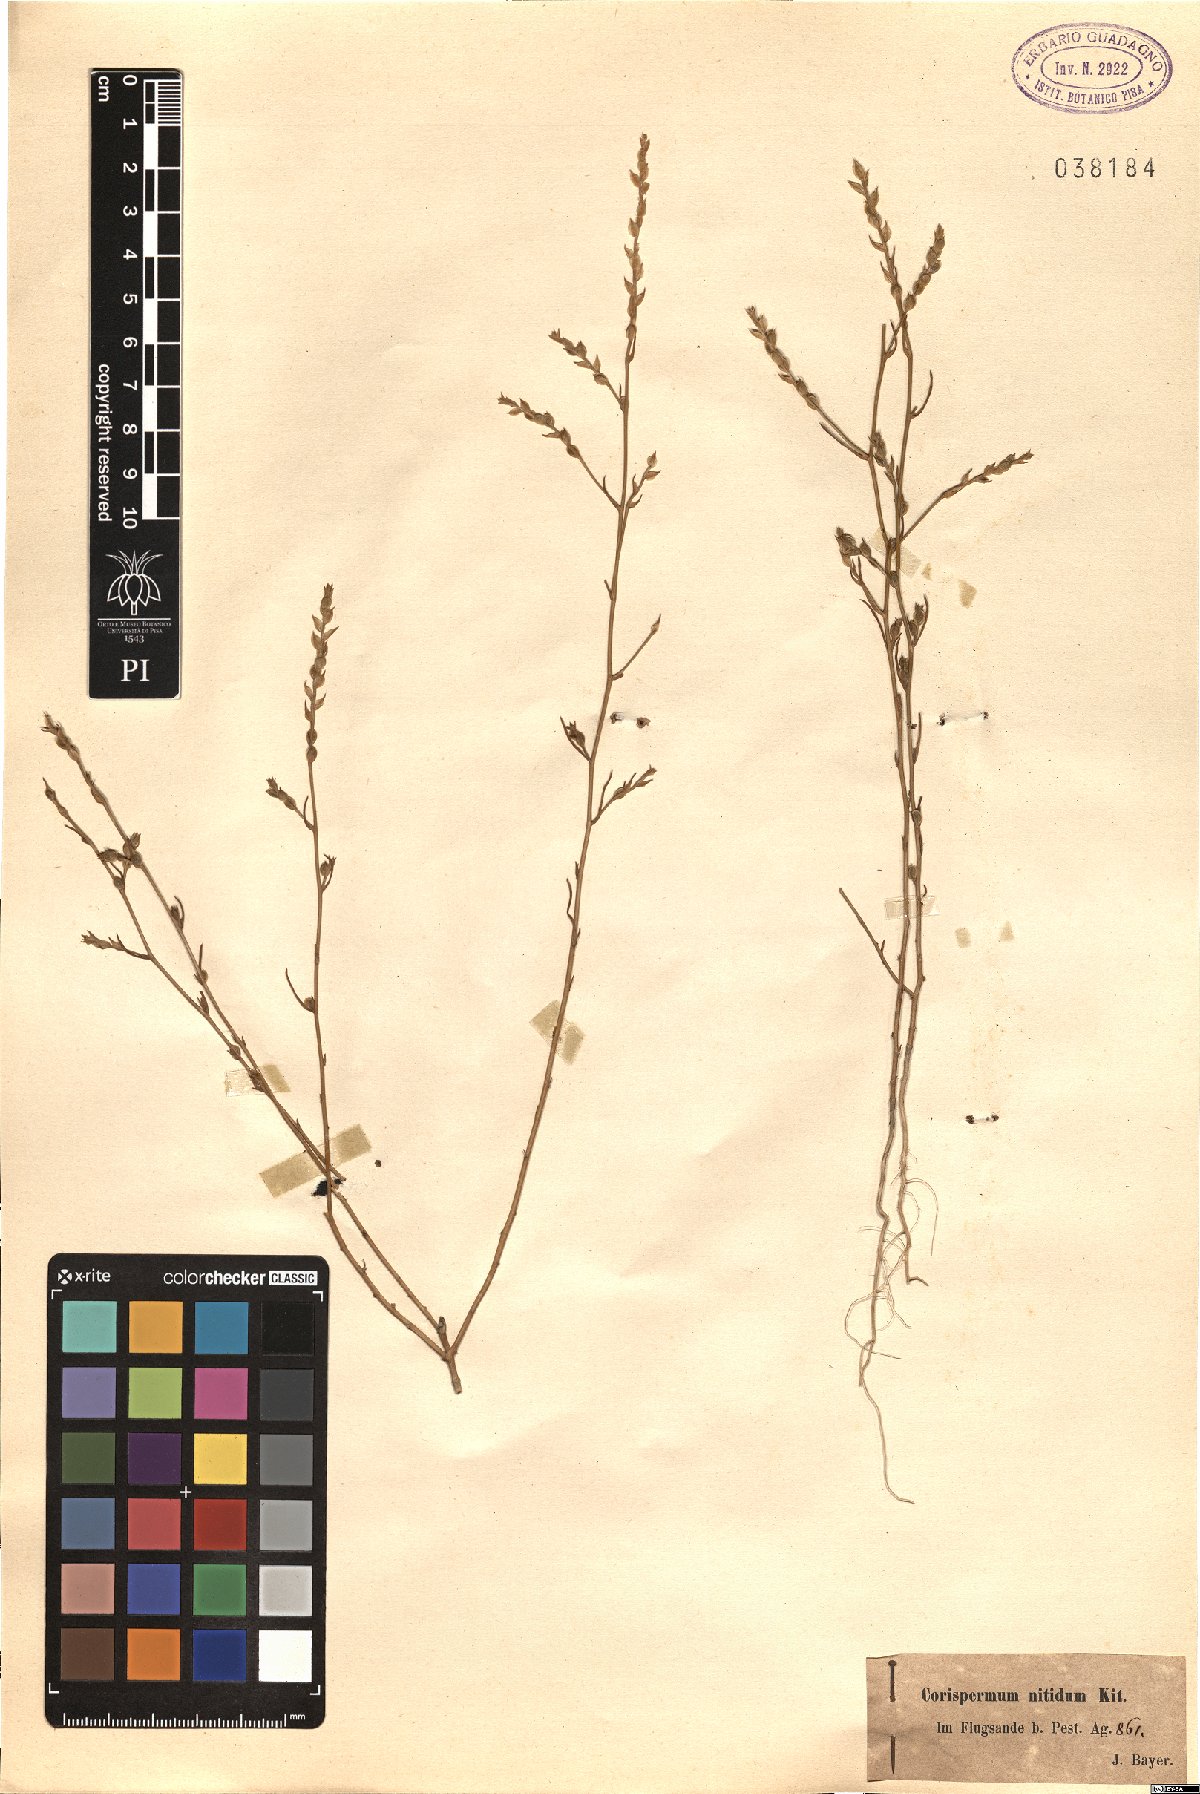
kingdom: Plantae
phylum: Tracheophyta
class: Magnoliopsida
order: Caryophyllales
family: Amaranthaceae
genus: Corispermum
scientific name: Corispermum nitidum
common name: Bugseed
